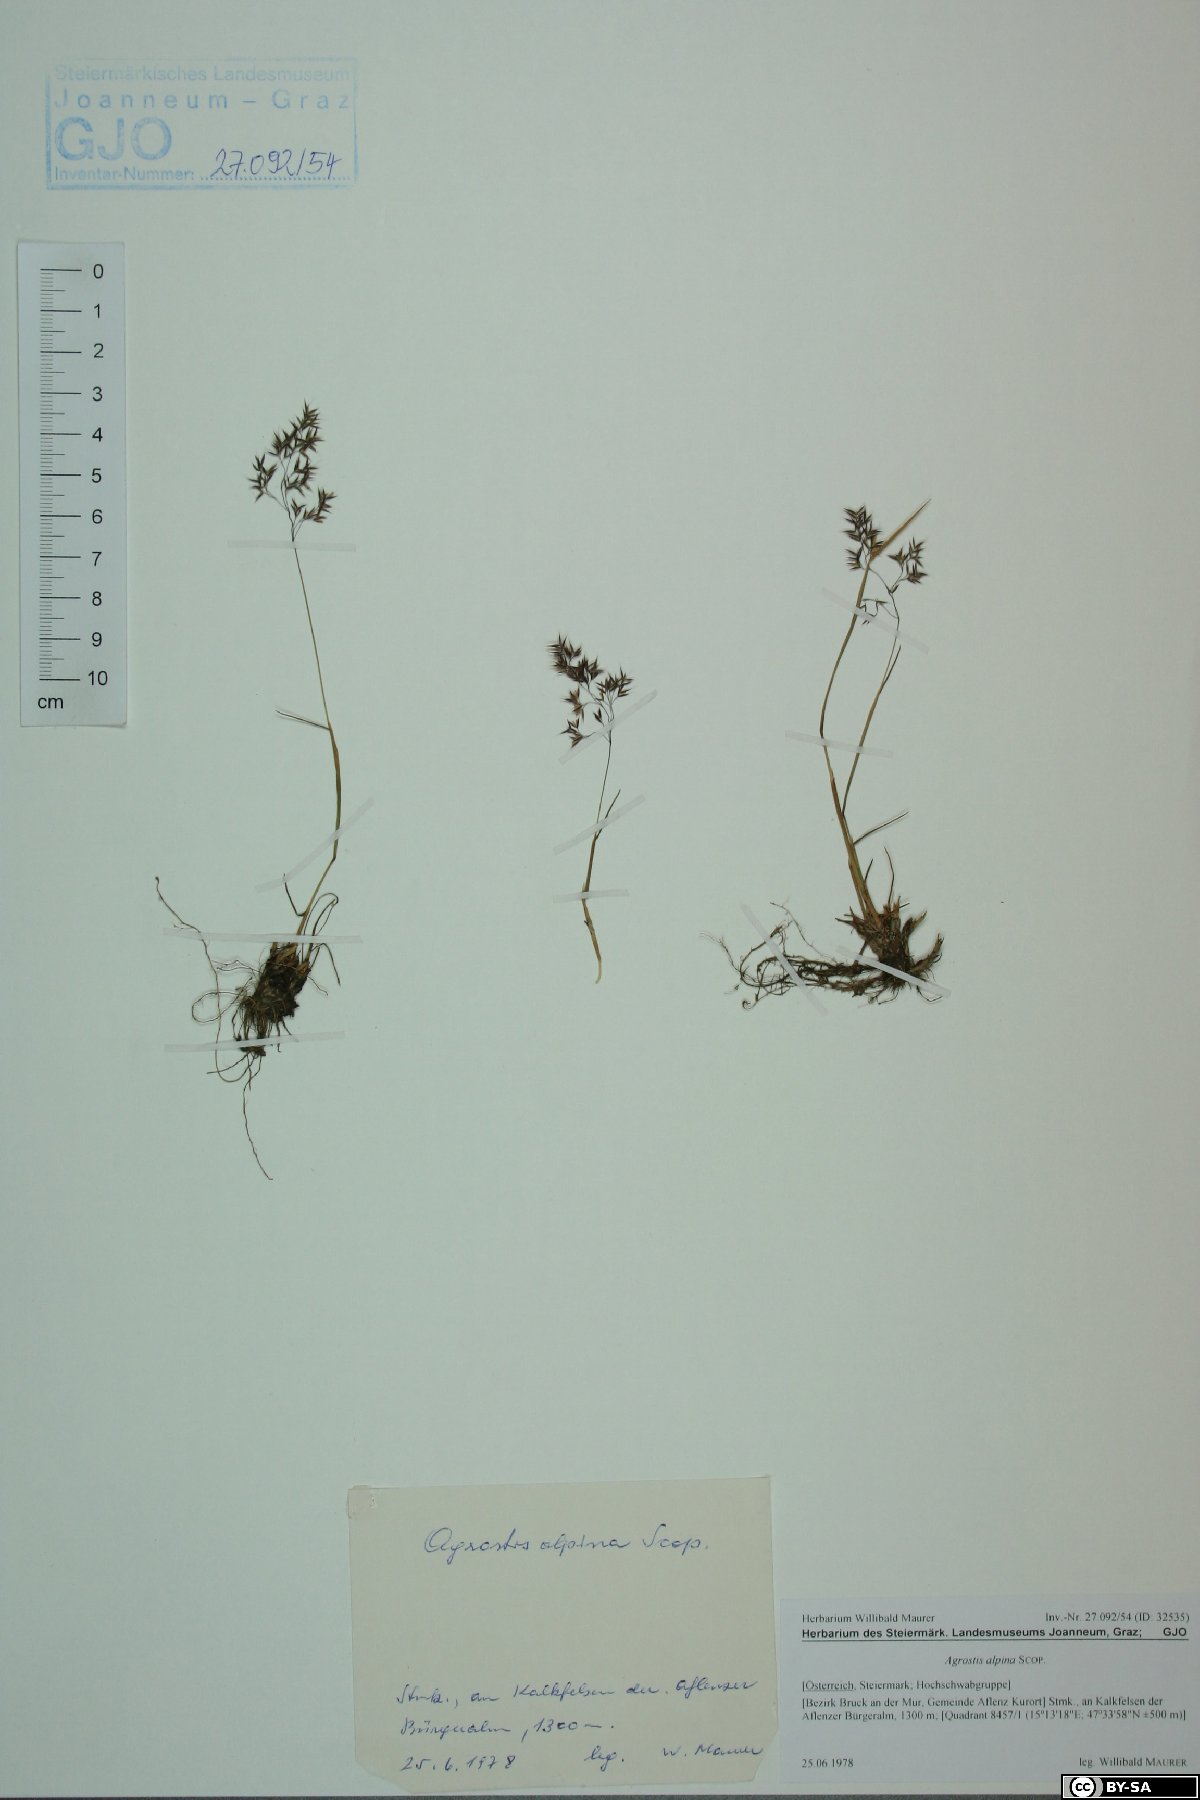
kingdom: Plantae
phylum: Tracheophyta
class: Liliopsida
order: Poales
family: Poaceae
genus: Alpagrostis
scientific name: Alpagrostis alpina
